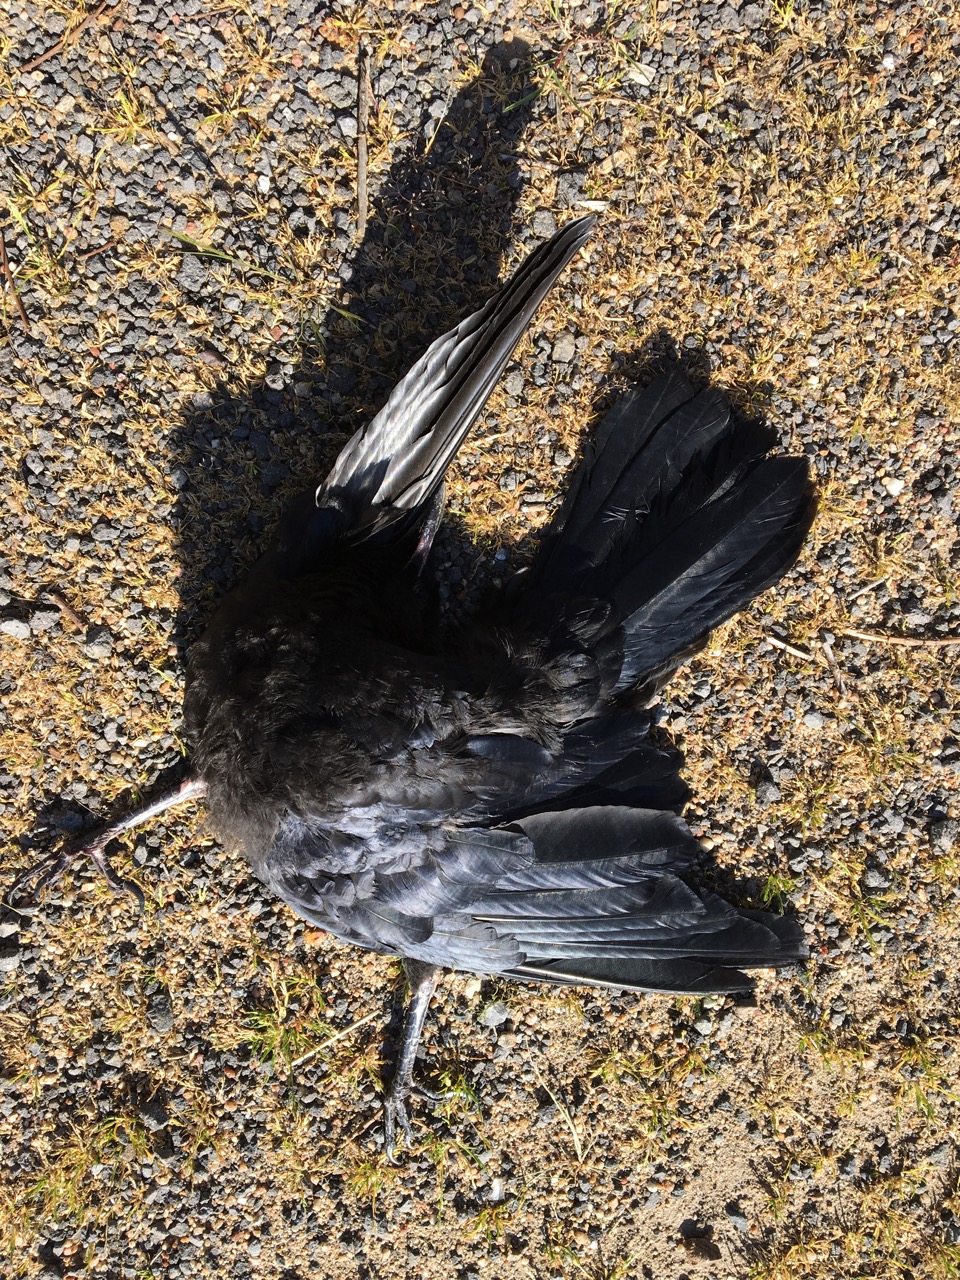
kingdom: Animalia
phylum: Chordata
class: Aves
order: Passeriformes
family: Corvidae
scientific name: Corvidae
